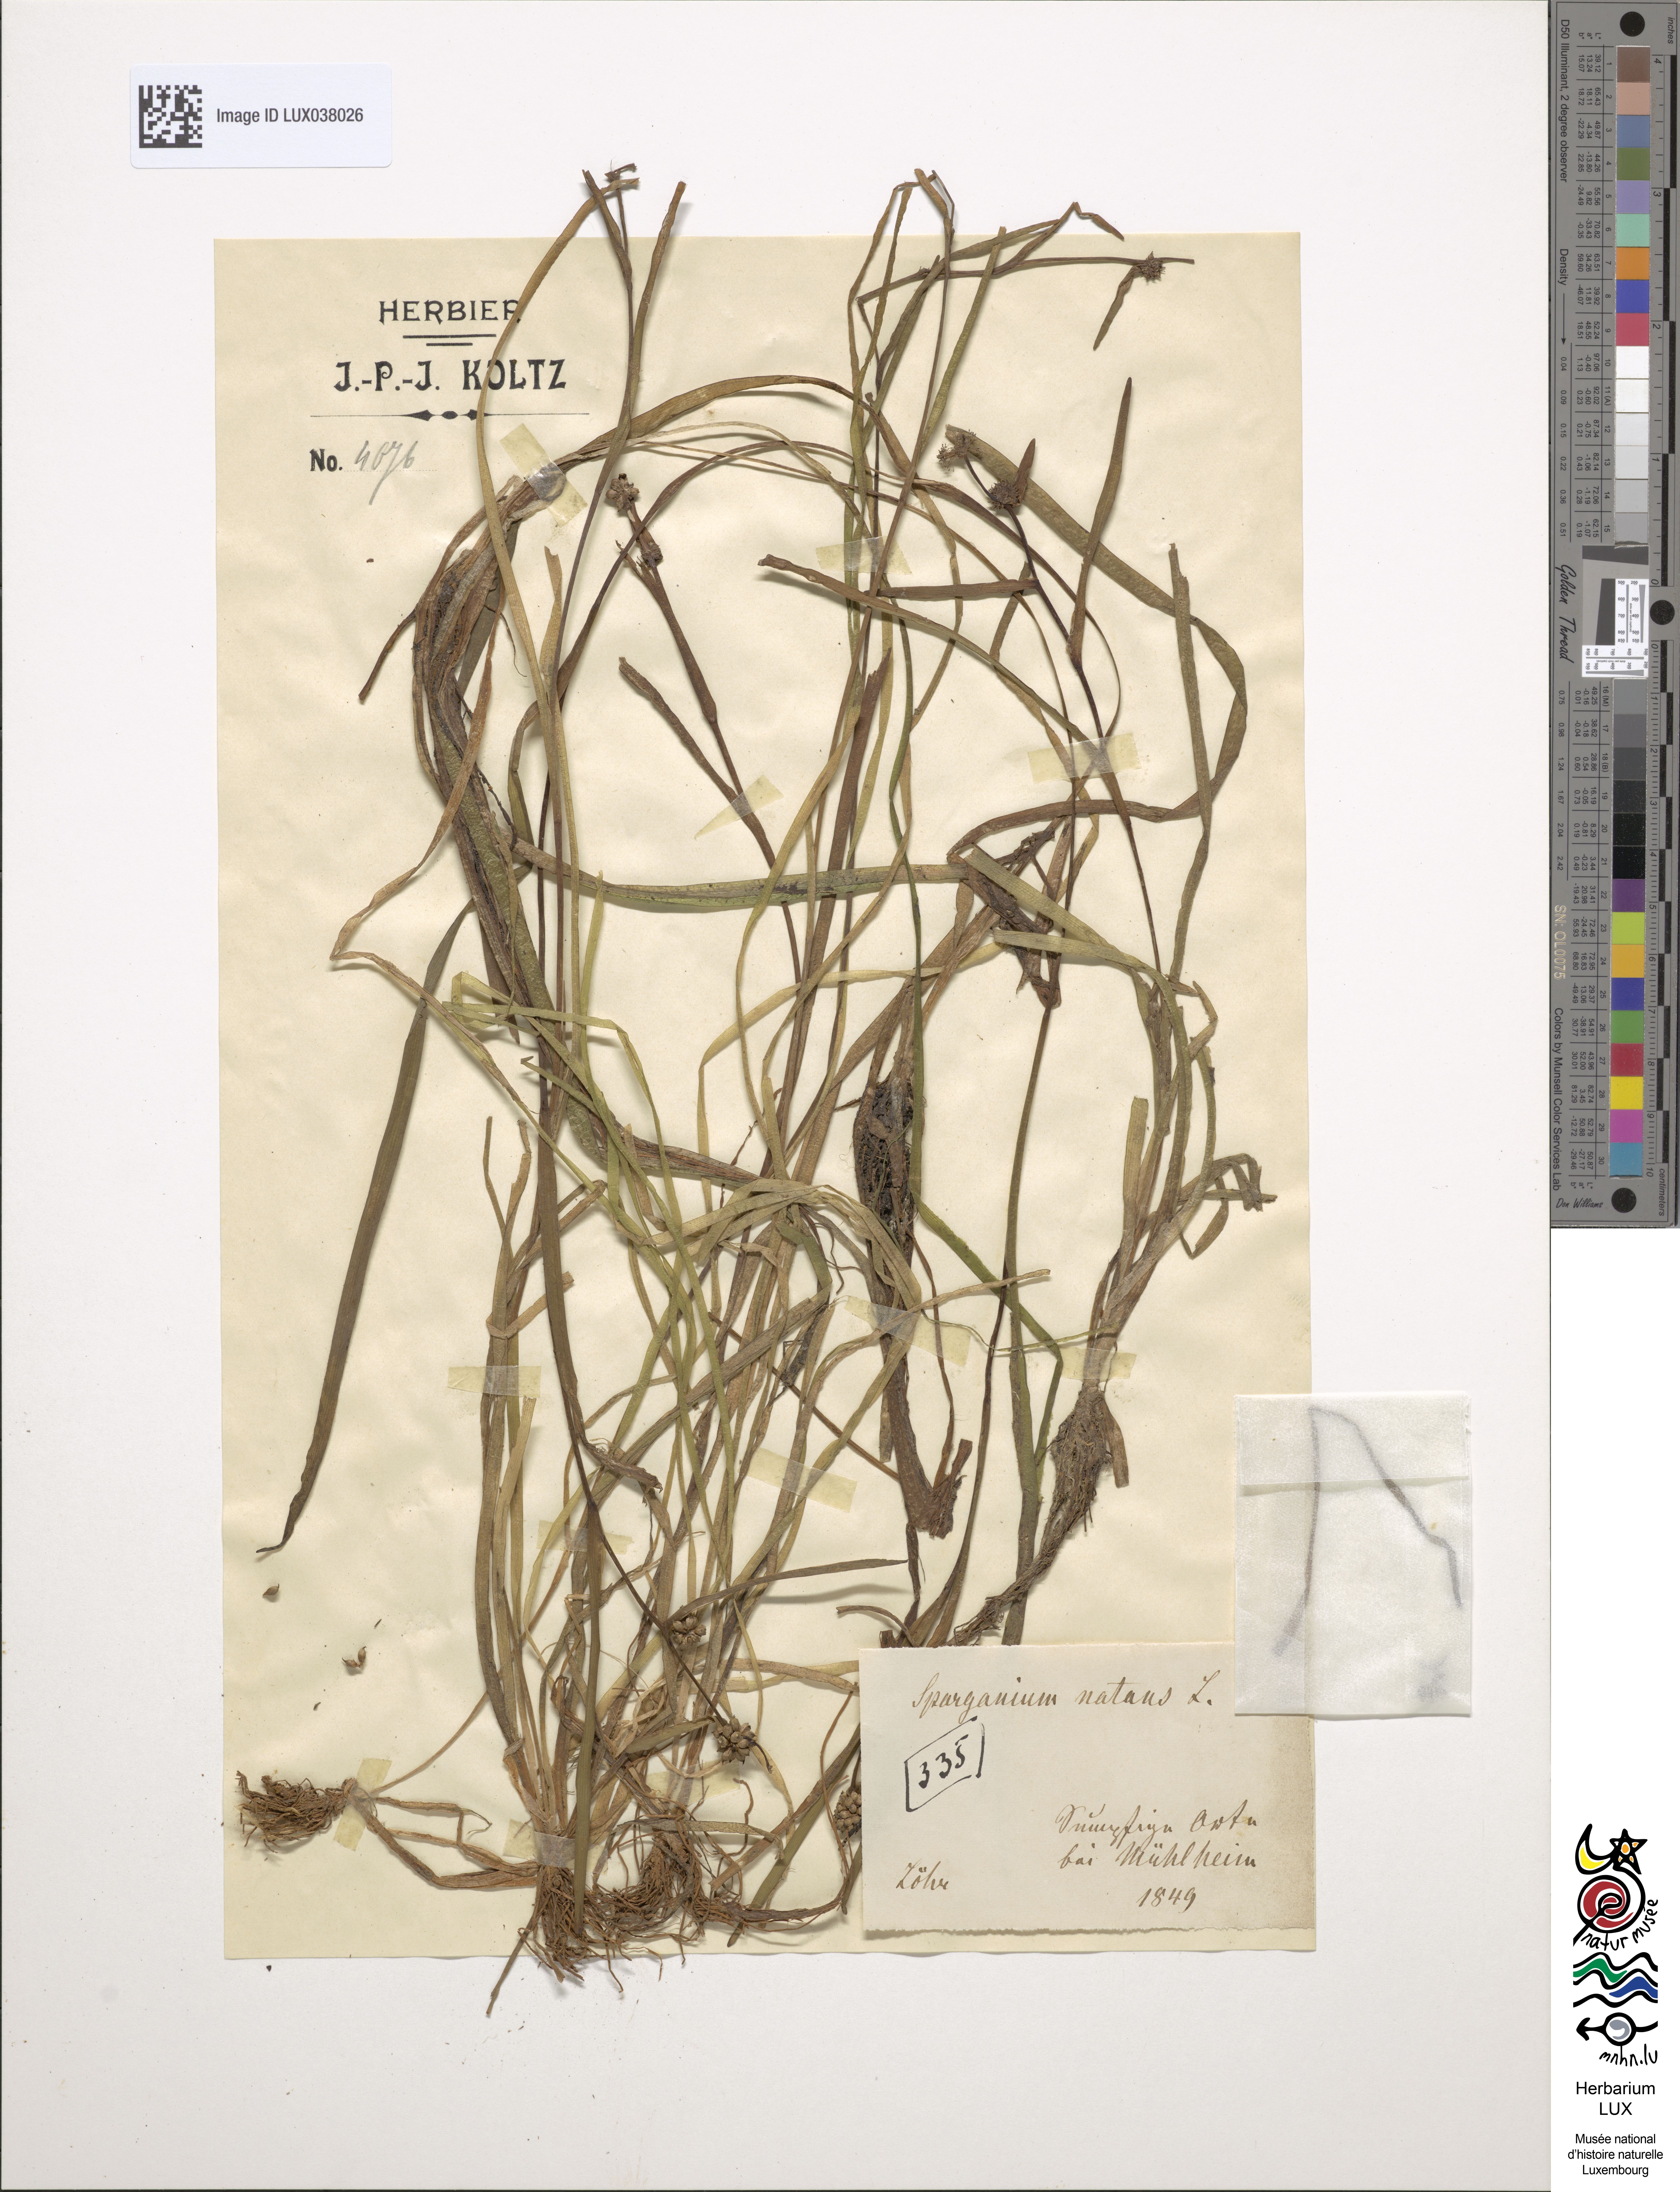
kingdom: Plantae
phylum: Tracheophyta
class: Liliopsida
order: Poales
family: Typhaceae
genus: Sparganium
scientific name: Sparganium natans
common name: Least bur-reed
